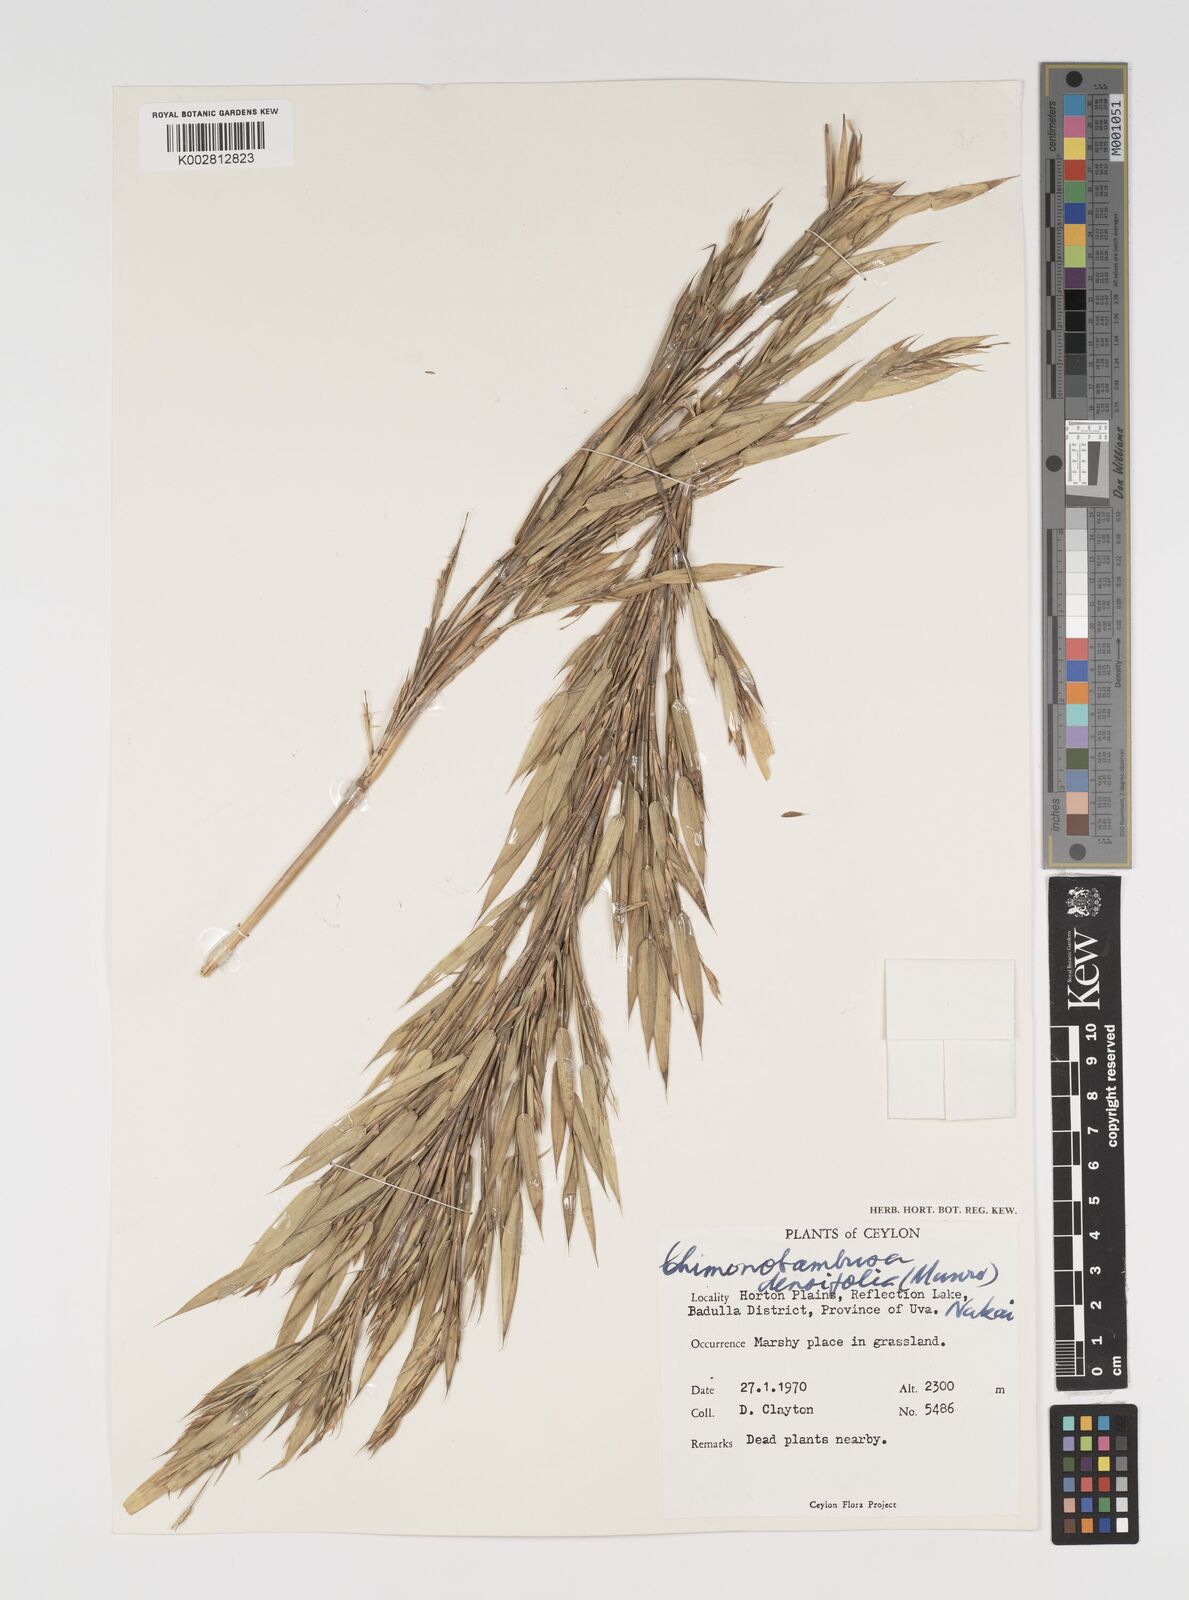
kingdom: Plantae
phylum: Tracheophyta
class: Liliopsida
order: Poales
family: Poaceae
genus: Brachystachyum
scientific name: Brachystachyum densiflorum
